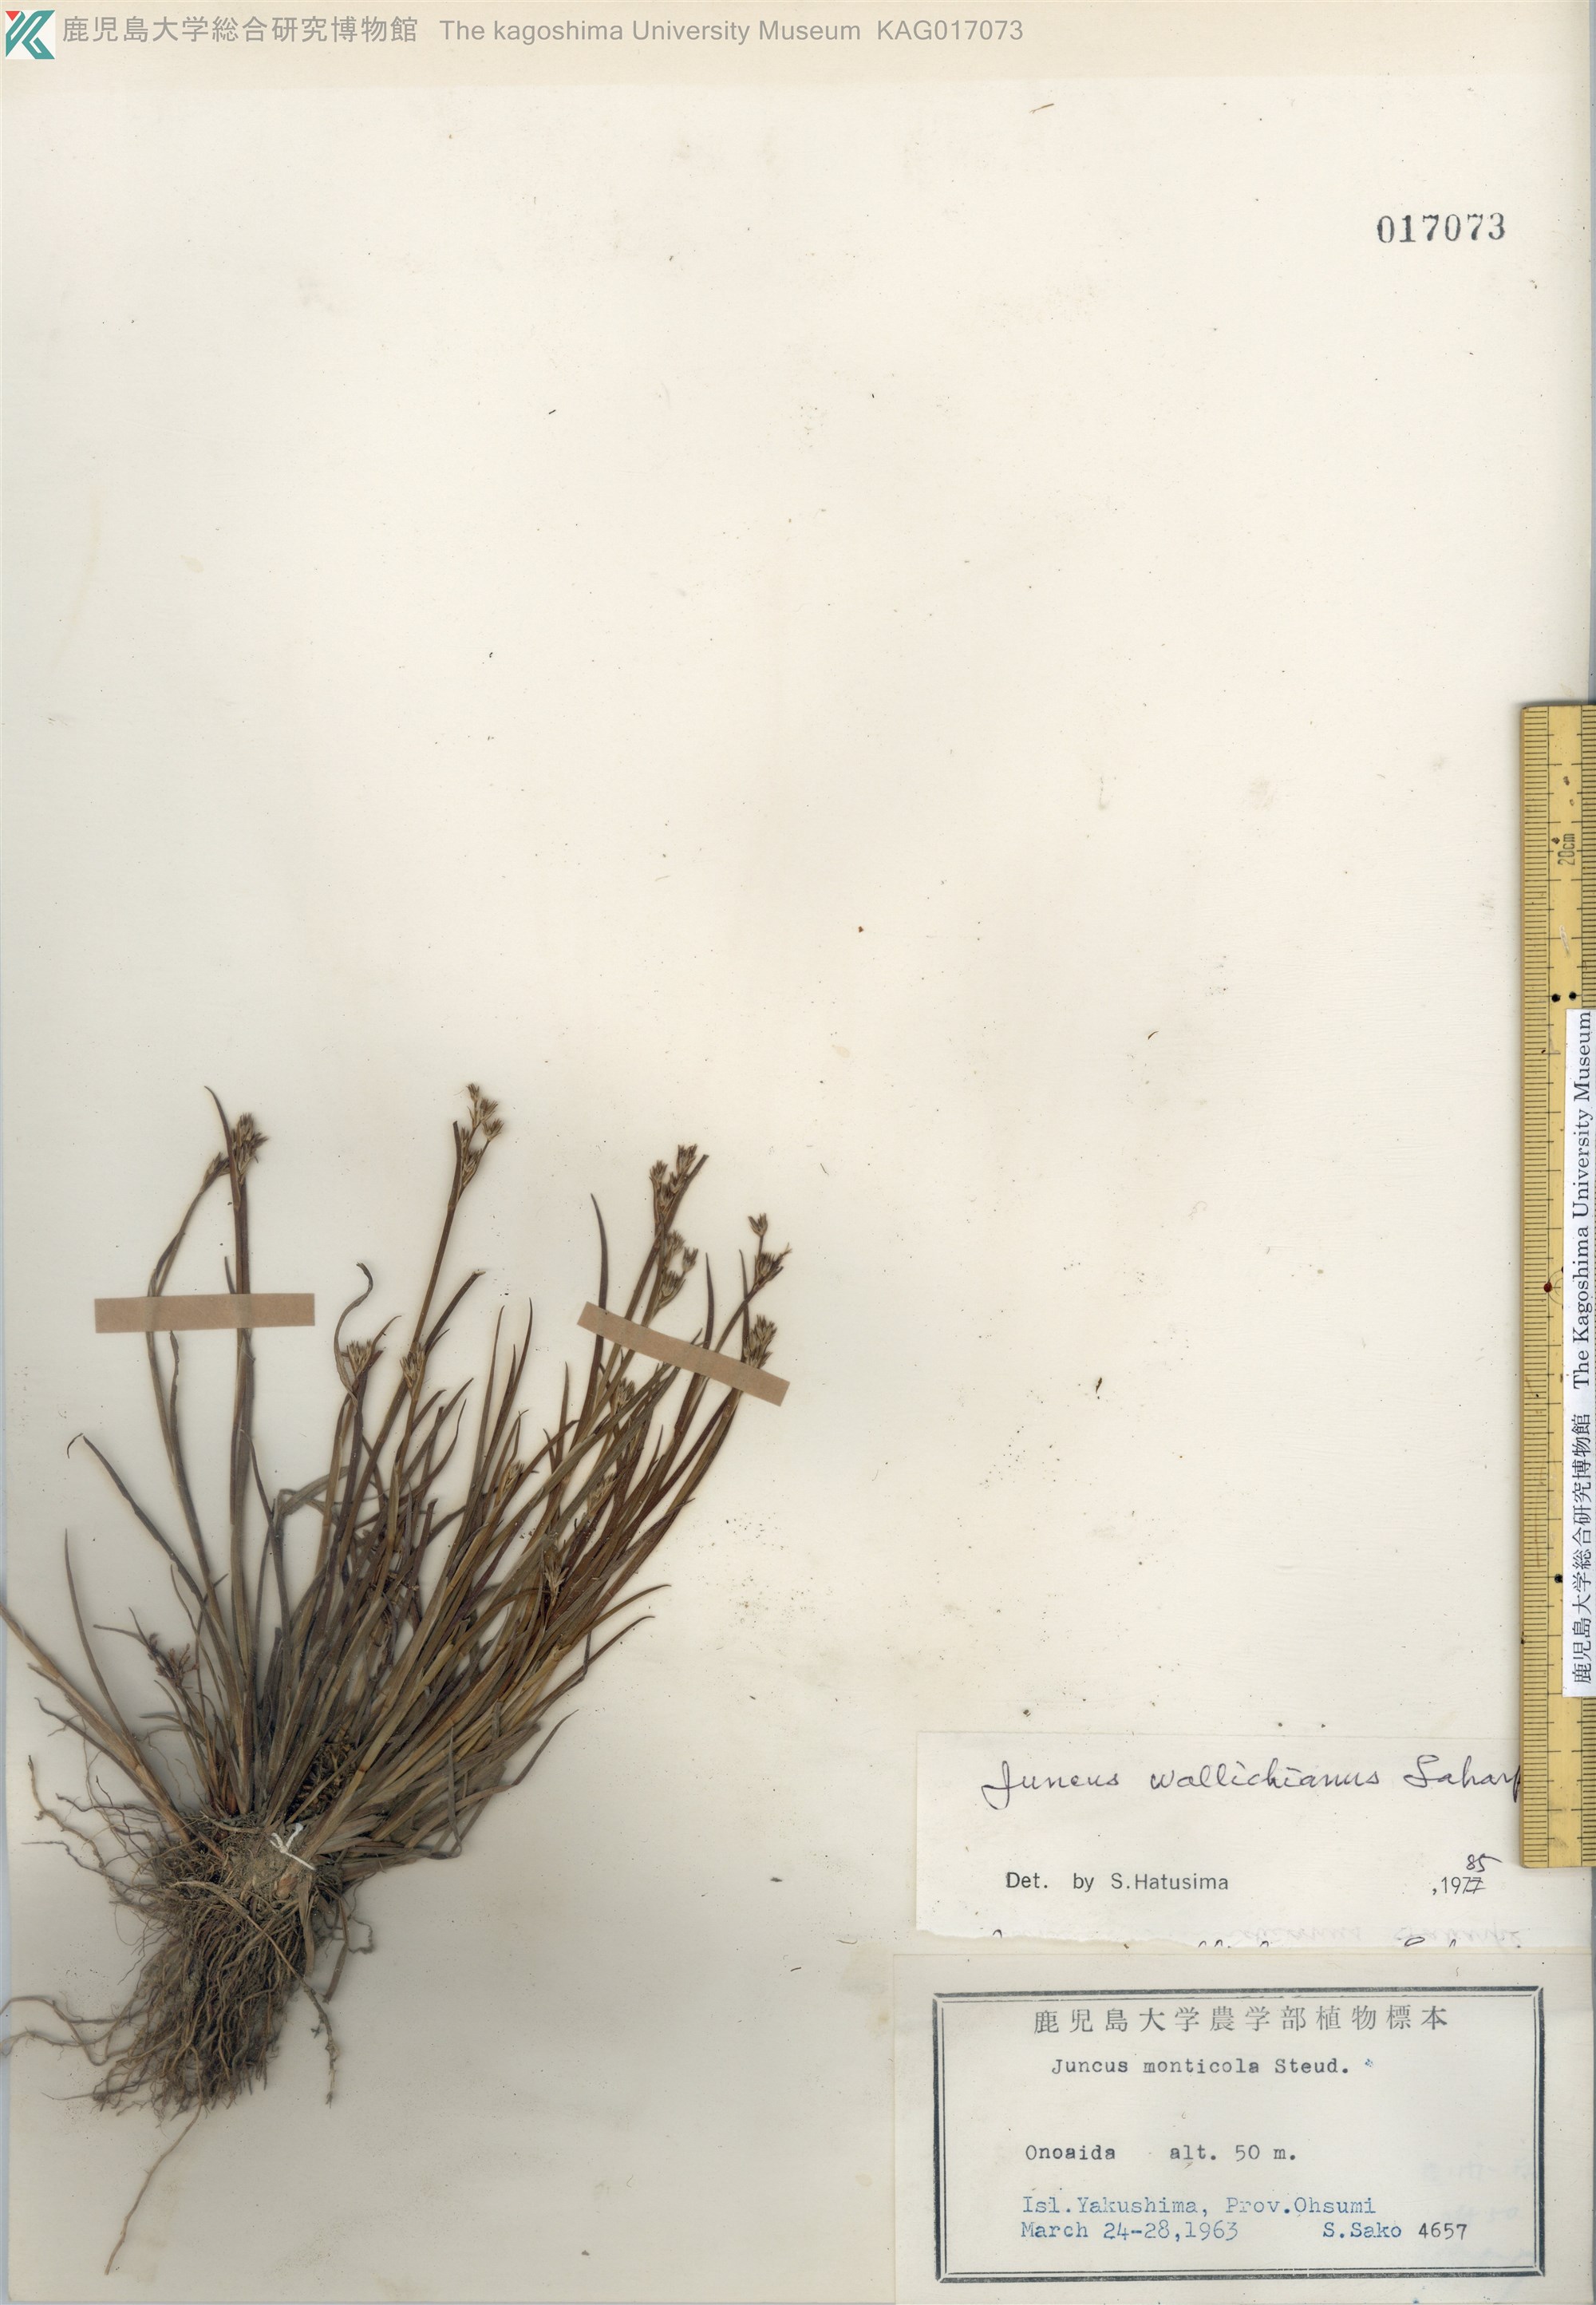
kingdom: Plantae
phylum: Tracheophyta
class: Liliopsida
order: Poales
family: Juncaceae
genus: Juncus
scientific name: Juncus prismatocarpus
